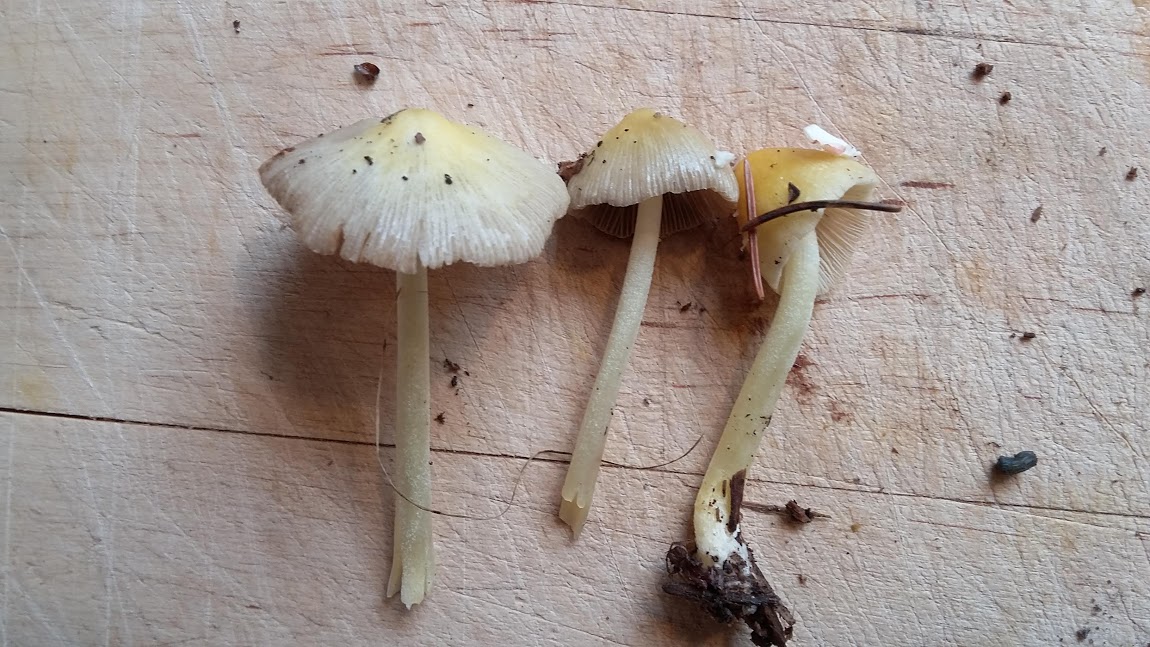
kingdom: Fungi
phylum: Basidiomycota
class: Agaricomycetes
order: Agaricales
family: Bolbitiaceae
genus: Bolbitius
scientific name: Bolbitius titubans
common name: almindelig gulhat
